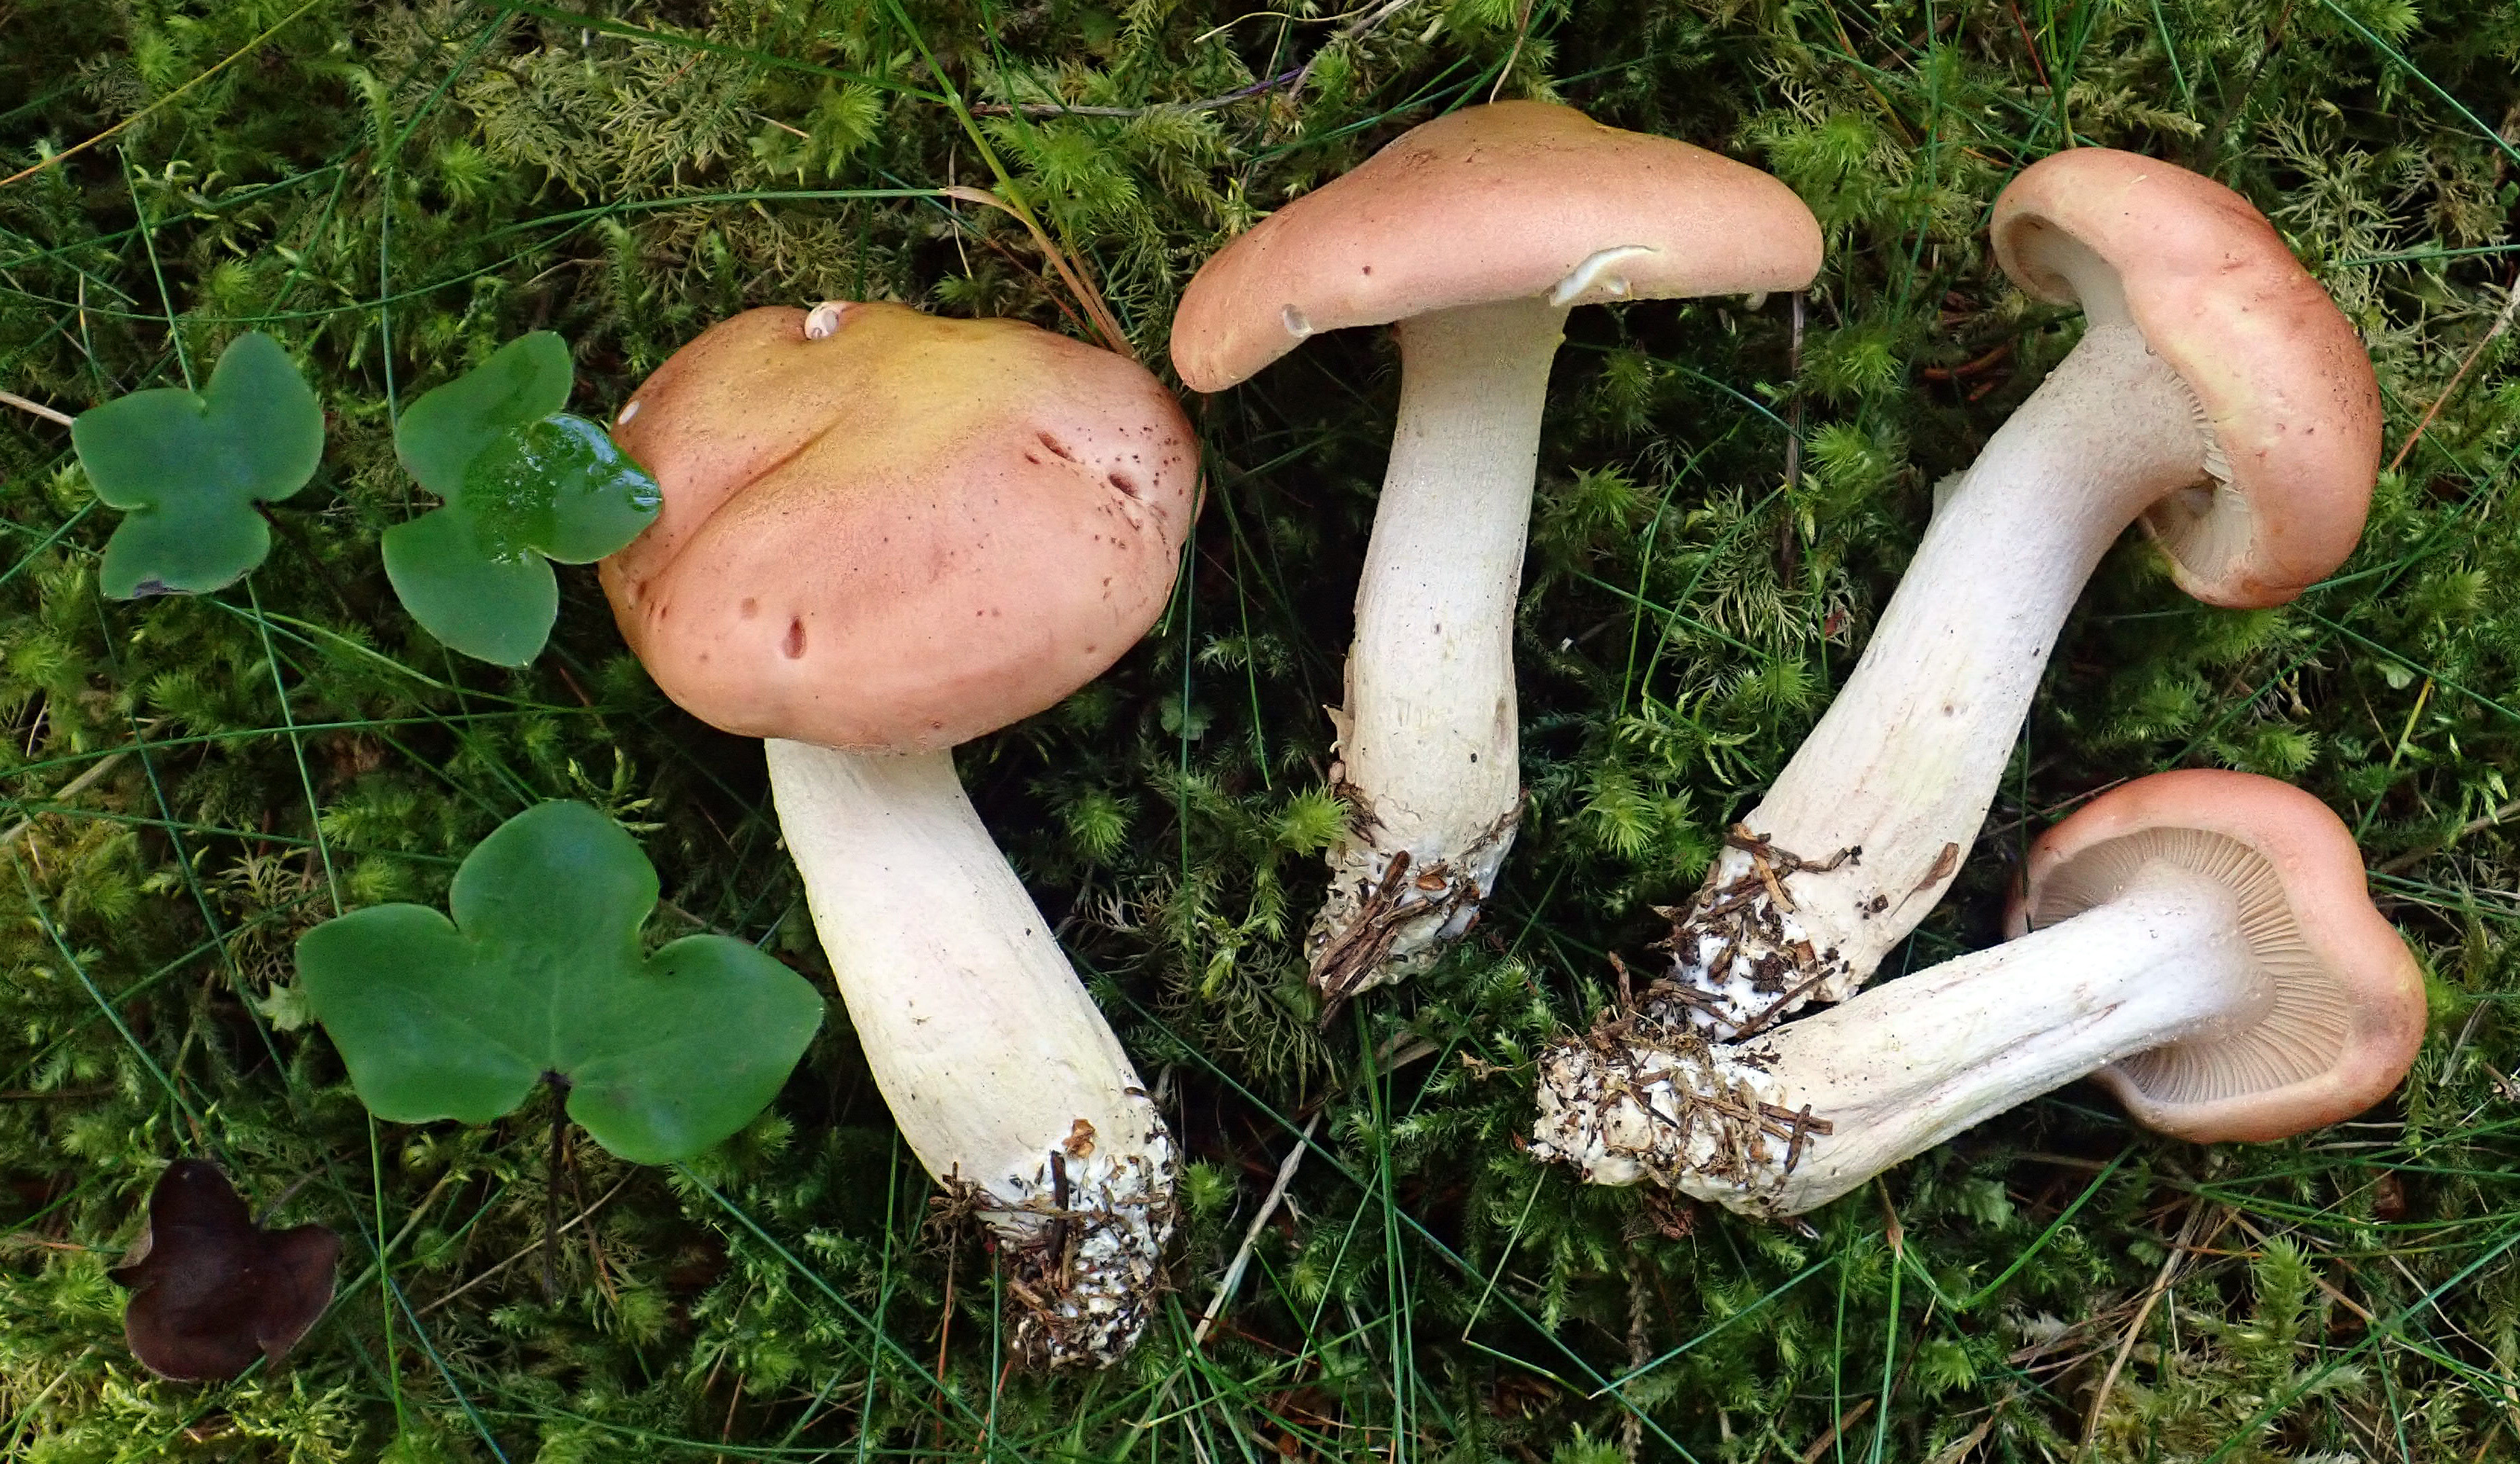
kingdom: Fungi
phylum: Basidiomycota
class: Agaricomycetes
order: Agaricales
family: Hygrophoraceae
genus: Hygrophorus
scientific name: Hygrophorus pudorinus
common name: Rosy woodwax
